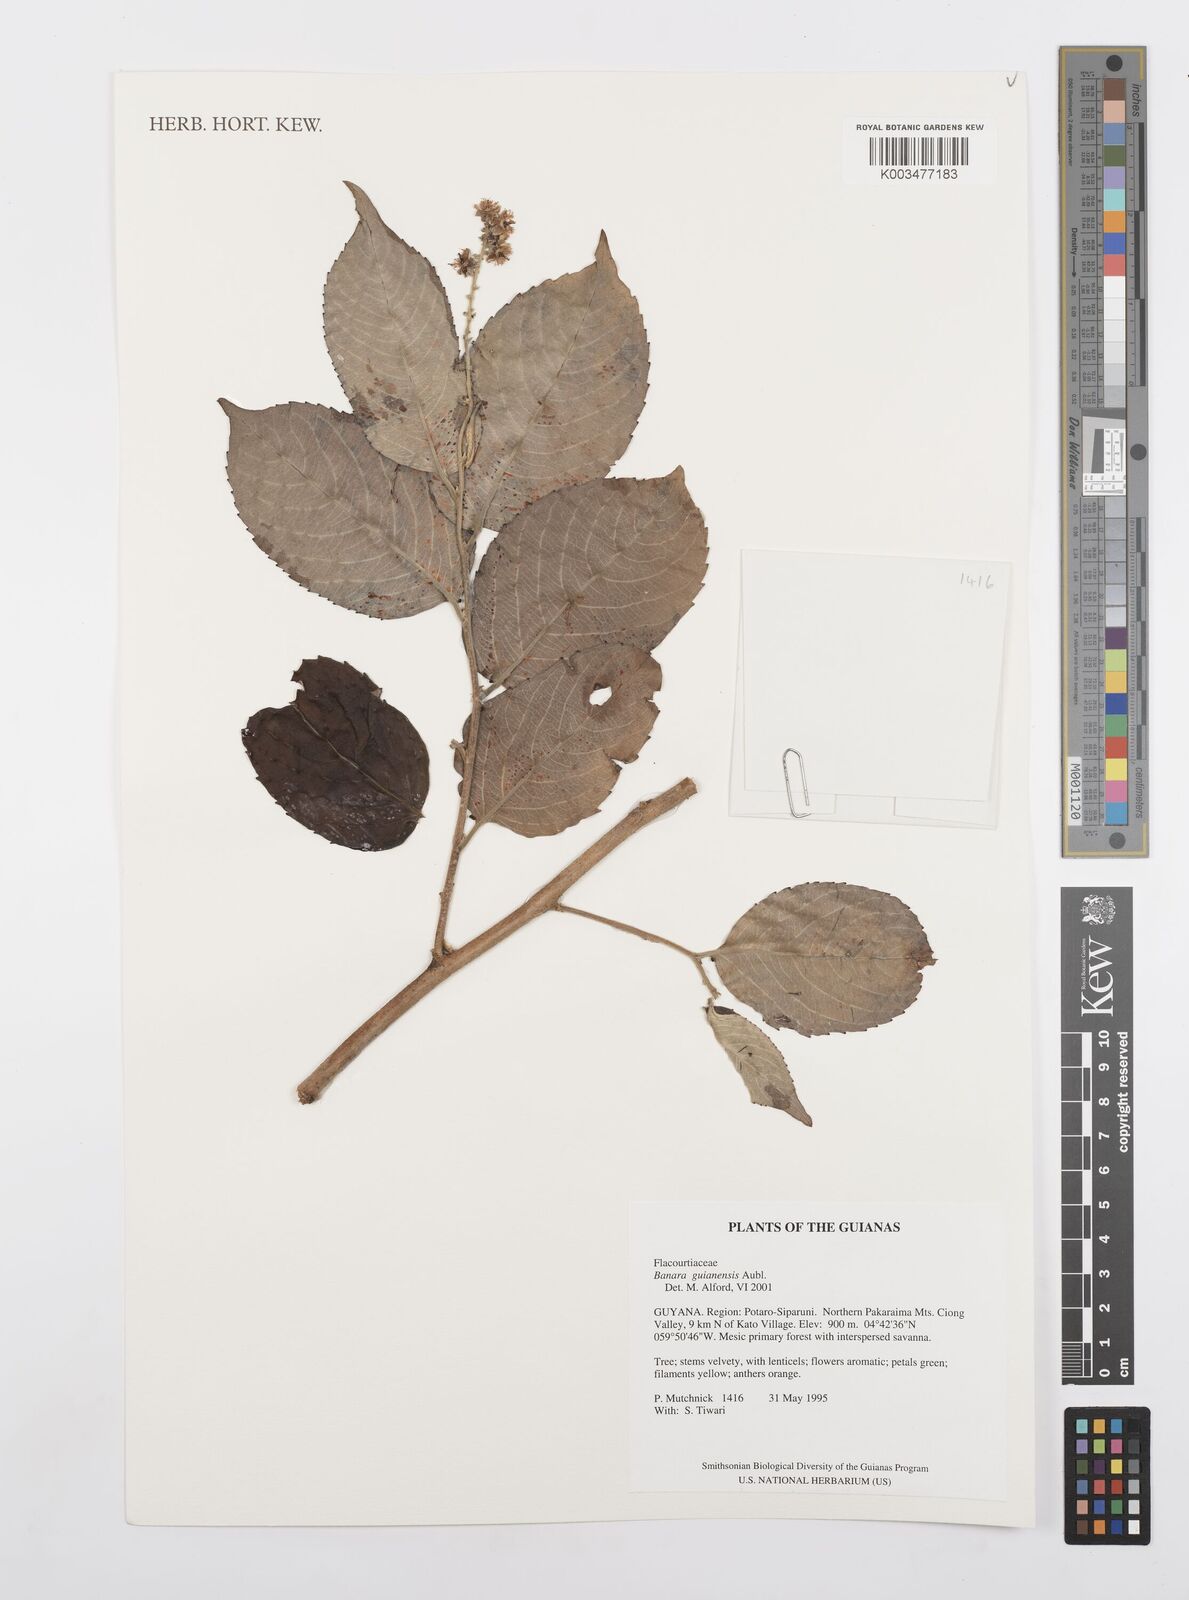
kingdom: Plantae
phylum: Tracheophyta
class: Magnoliopsida
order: Malpighiales
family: Salicaceae
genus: Banara
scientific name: Banara guianensis
